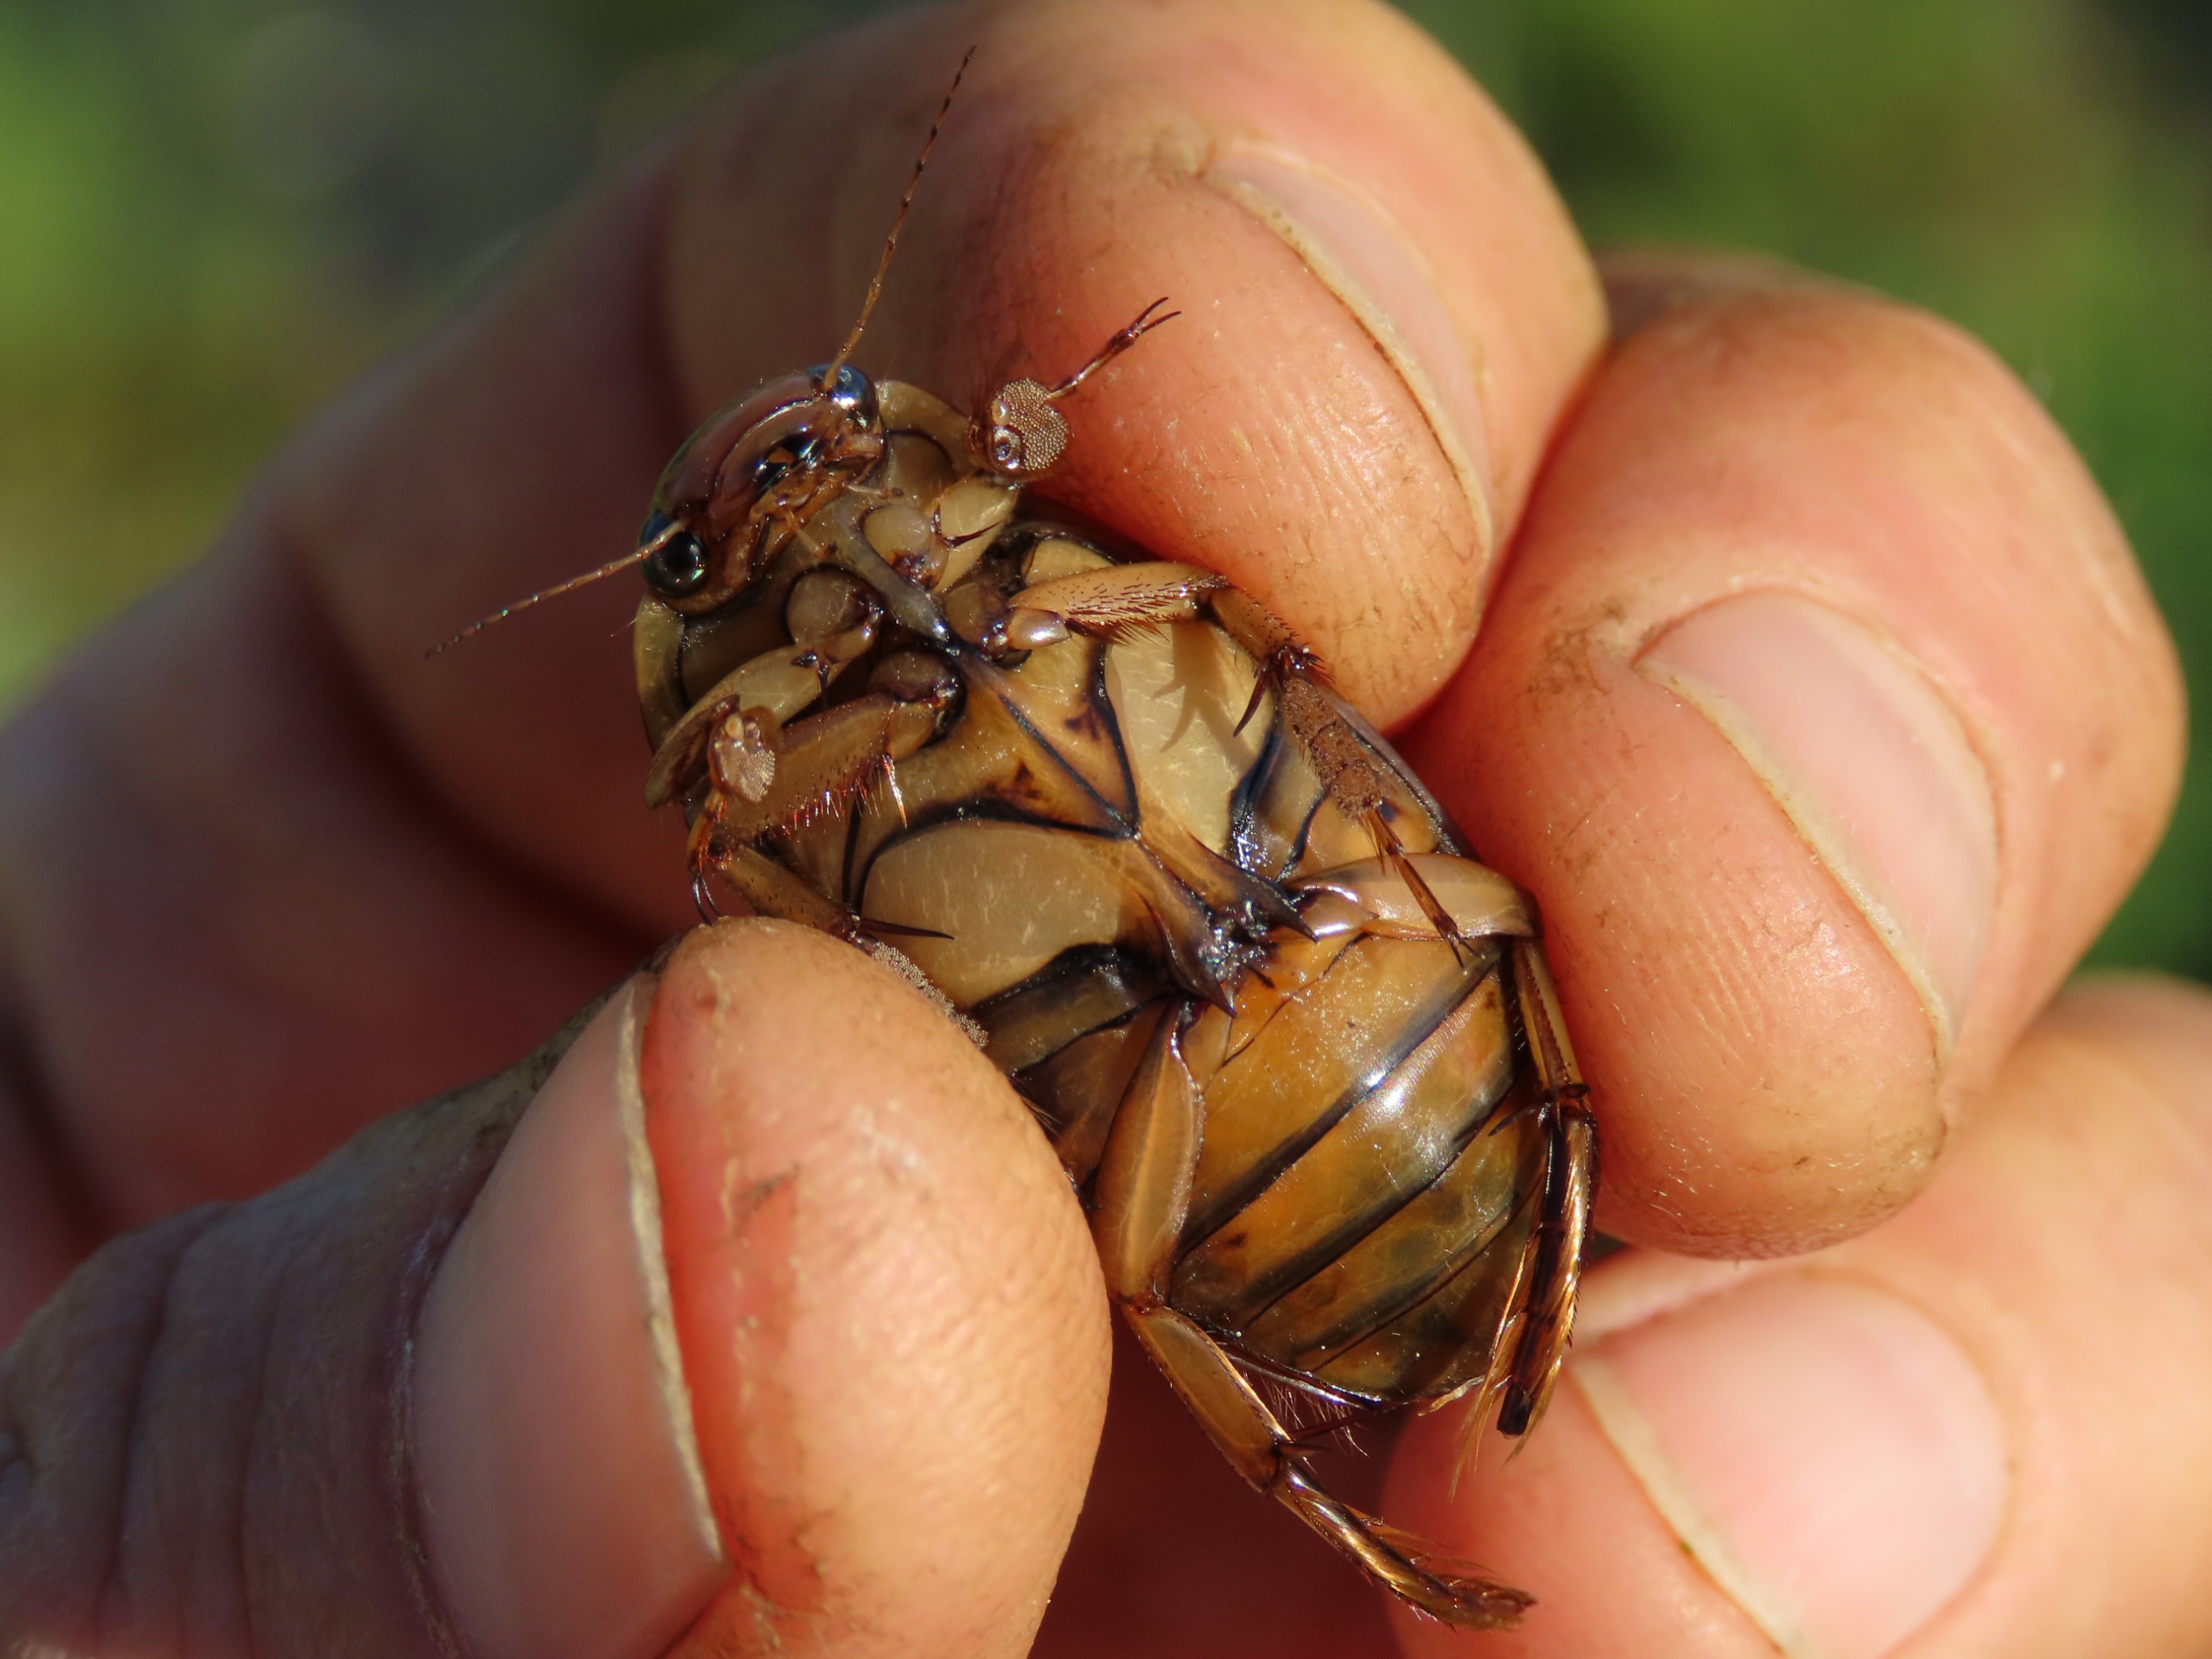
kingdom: Animalia
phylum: Arthropoda
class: Insecta
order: Coleoptera
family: Dytiscidae
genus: Dytiscus
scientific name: Dytiscus lapponicus
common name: Hedevandkalv
